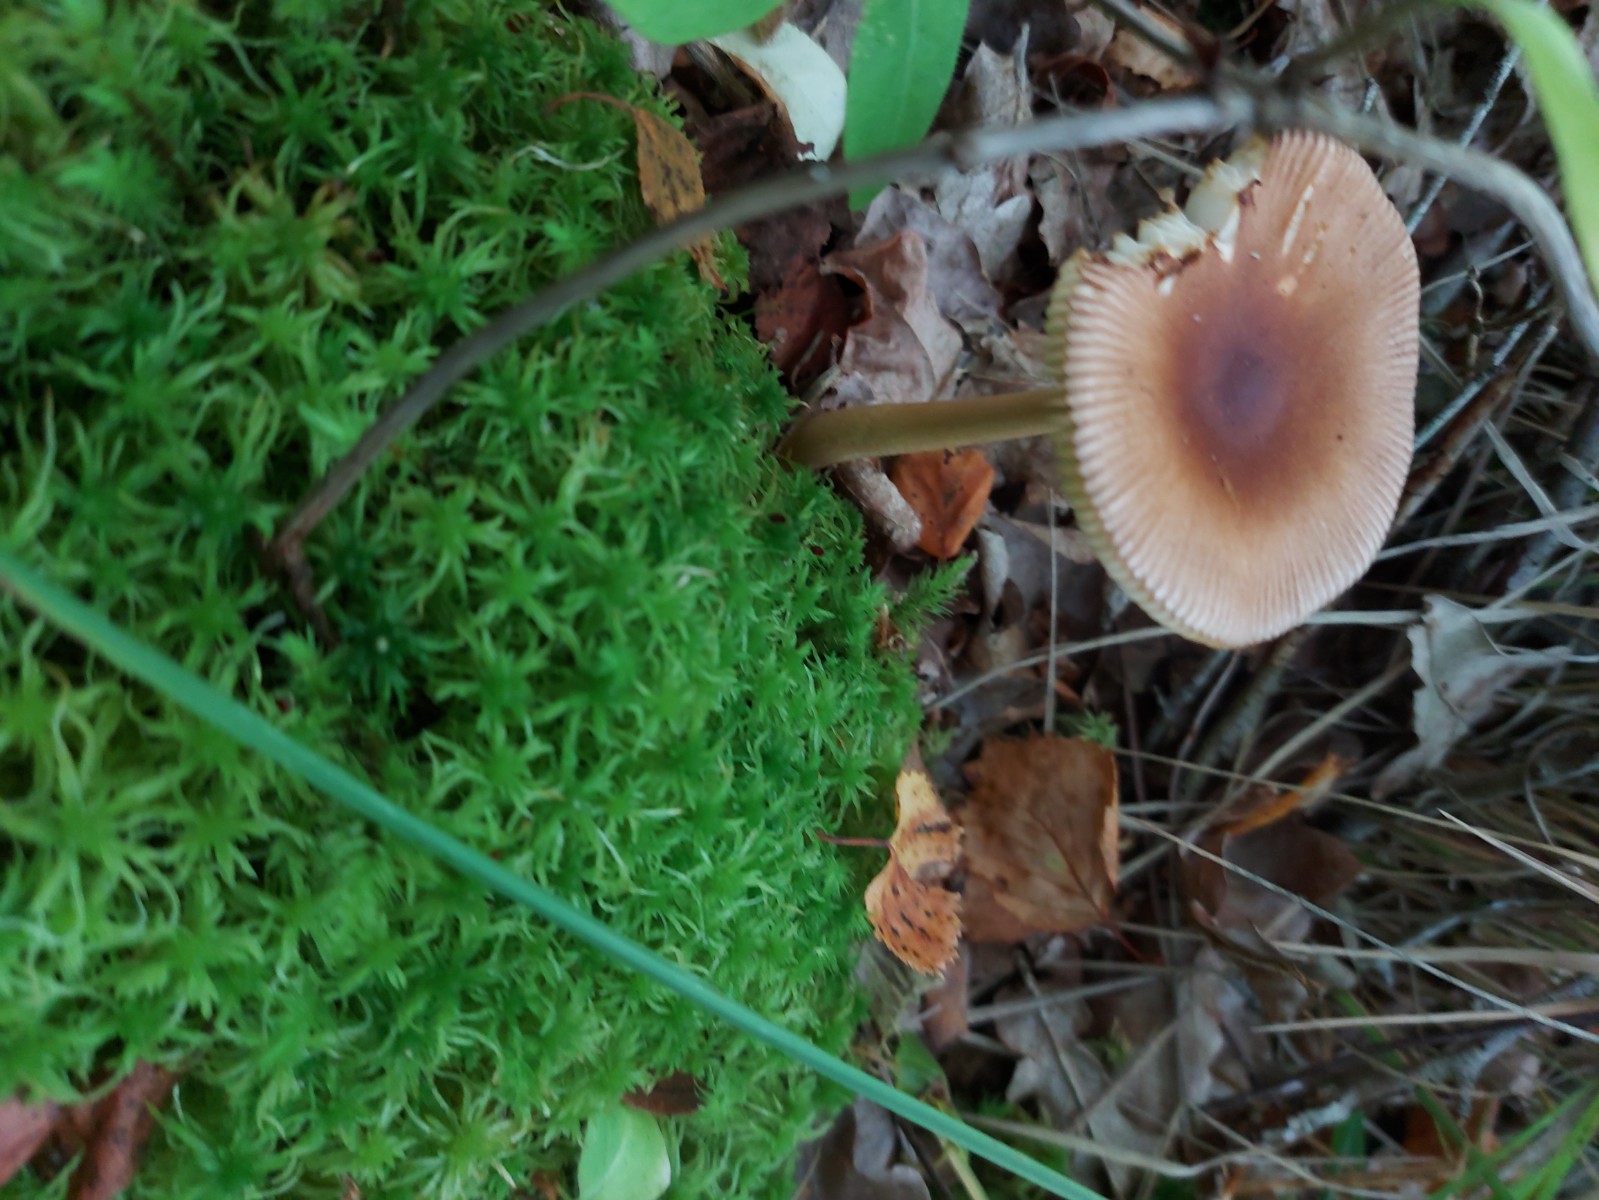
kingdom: Fungi
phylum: Basidiomycota
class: Agaricomycetes
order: Agaricales
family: Amanitaceae
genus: Amanita
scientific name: Amanita fulva
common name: brun kam-fluesvamp
